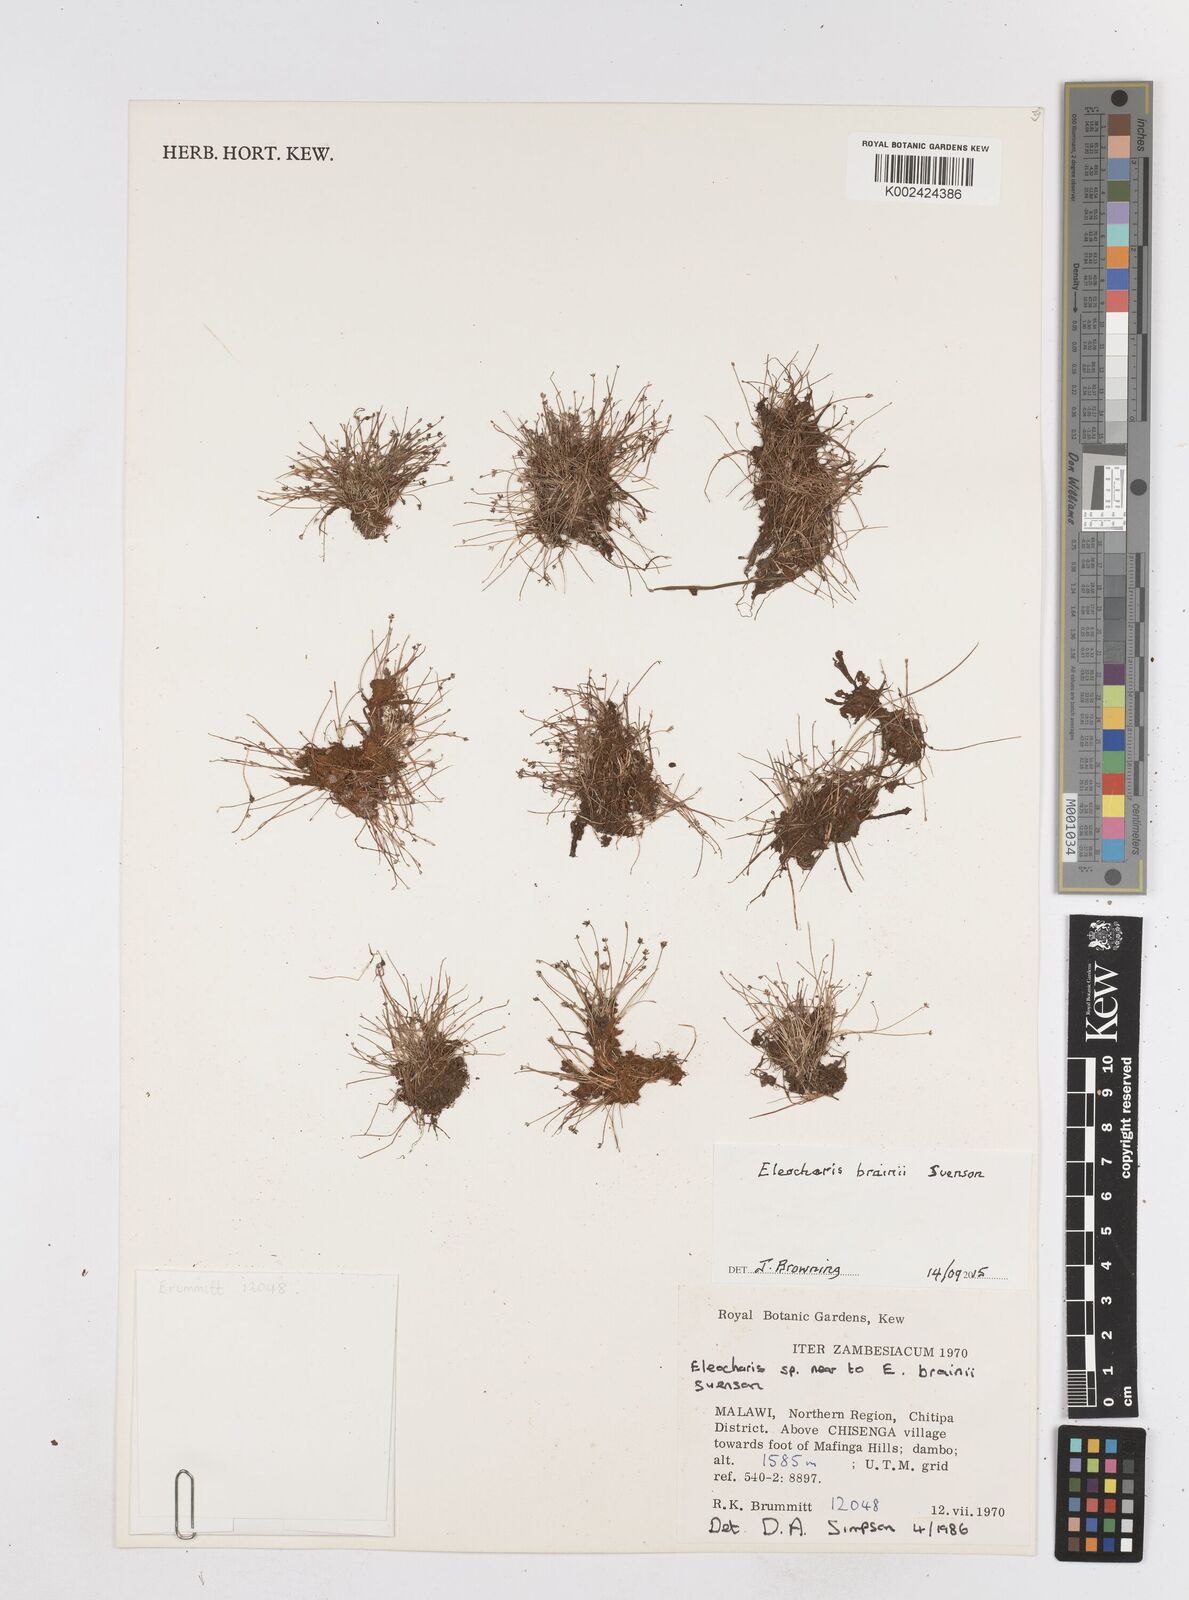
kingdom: Plantae
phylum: Tracheophyta
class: Liliopsida
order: Poales
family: Cyperaceae
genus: Eleocharis
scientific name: Eleocharis brainii
